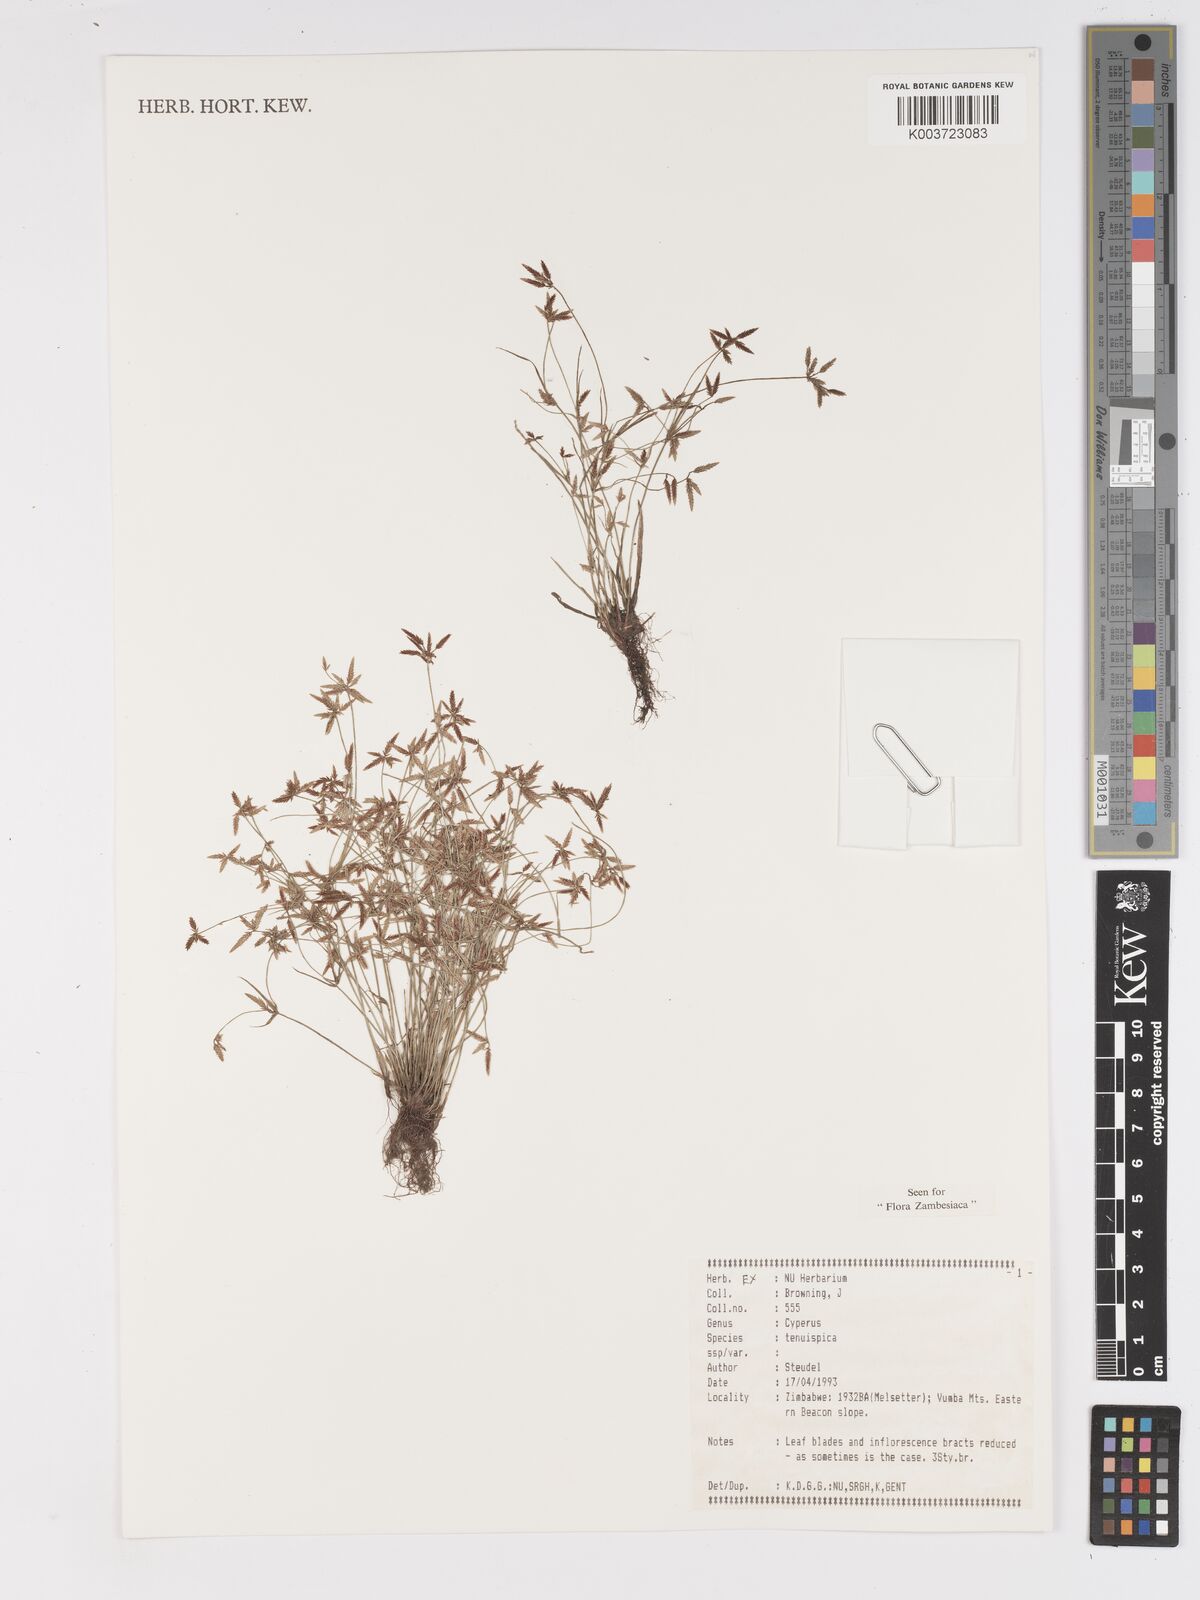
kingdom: Plantae
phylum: Tracheophyta
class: Liliopsida
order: Poales
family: Cyperaceae
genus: Cyperus
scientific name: Cyperus tenuispica
